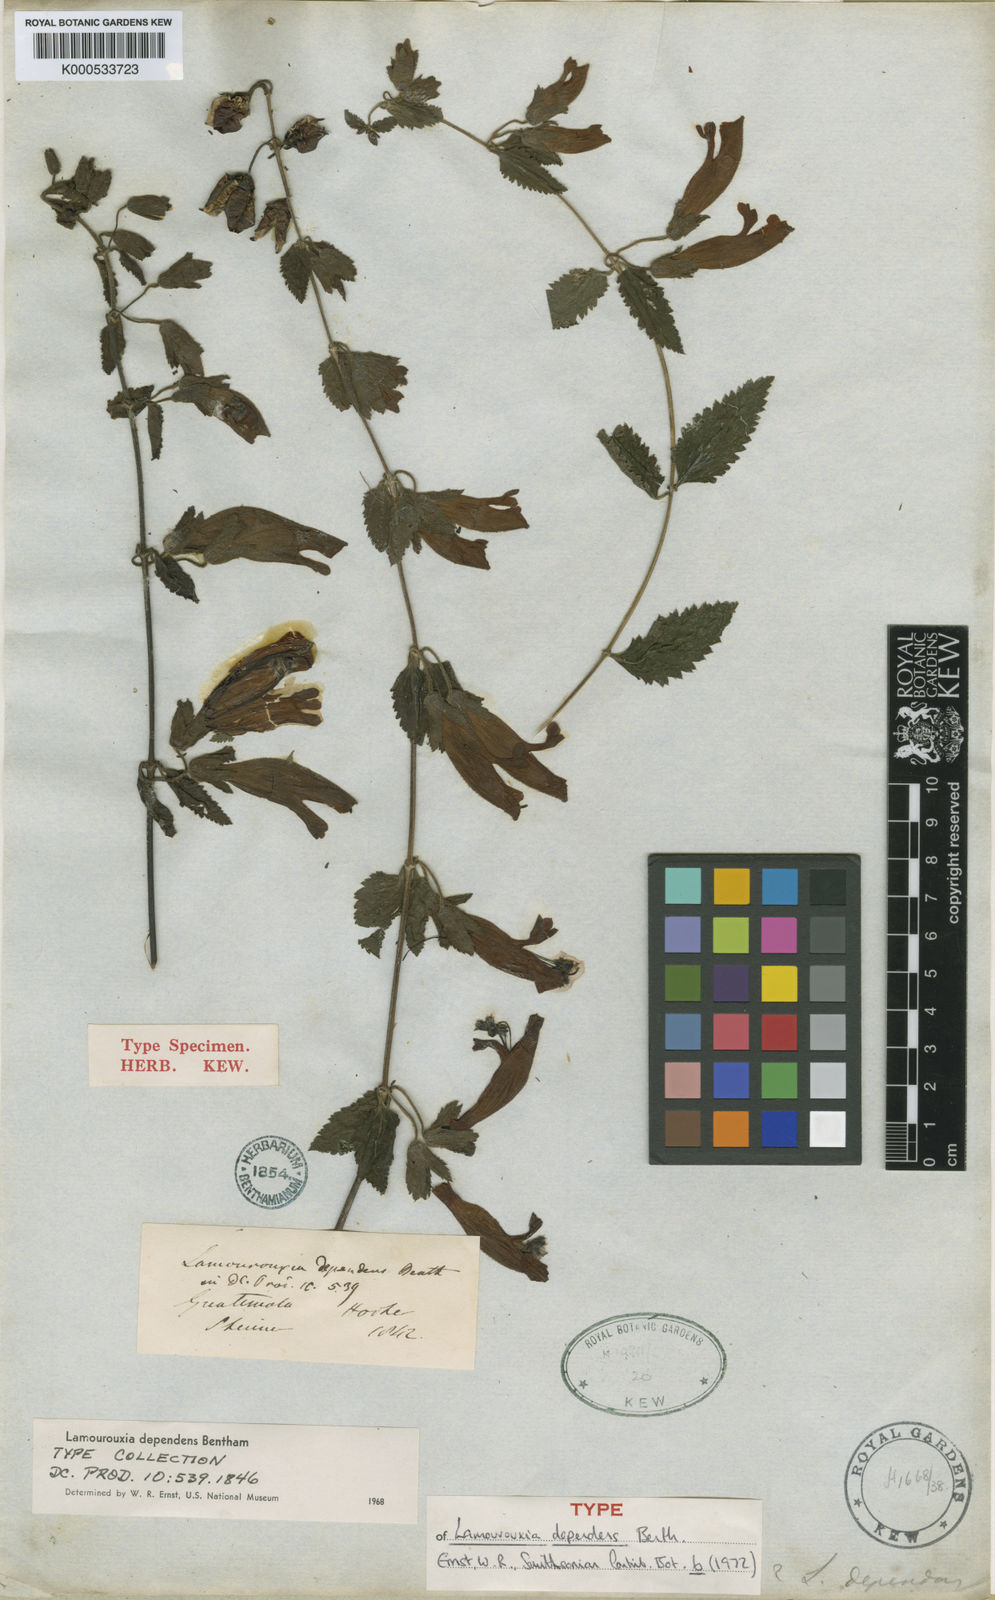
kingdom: Plantae
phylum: Tracheophyta
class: Magnoliopsida
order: Lamiales
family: Orobanchaceae
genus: Lamourouxia
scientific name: Lamourouxia dependens
